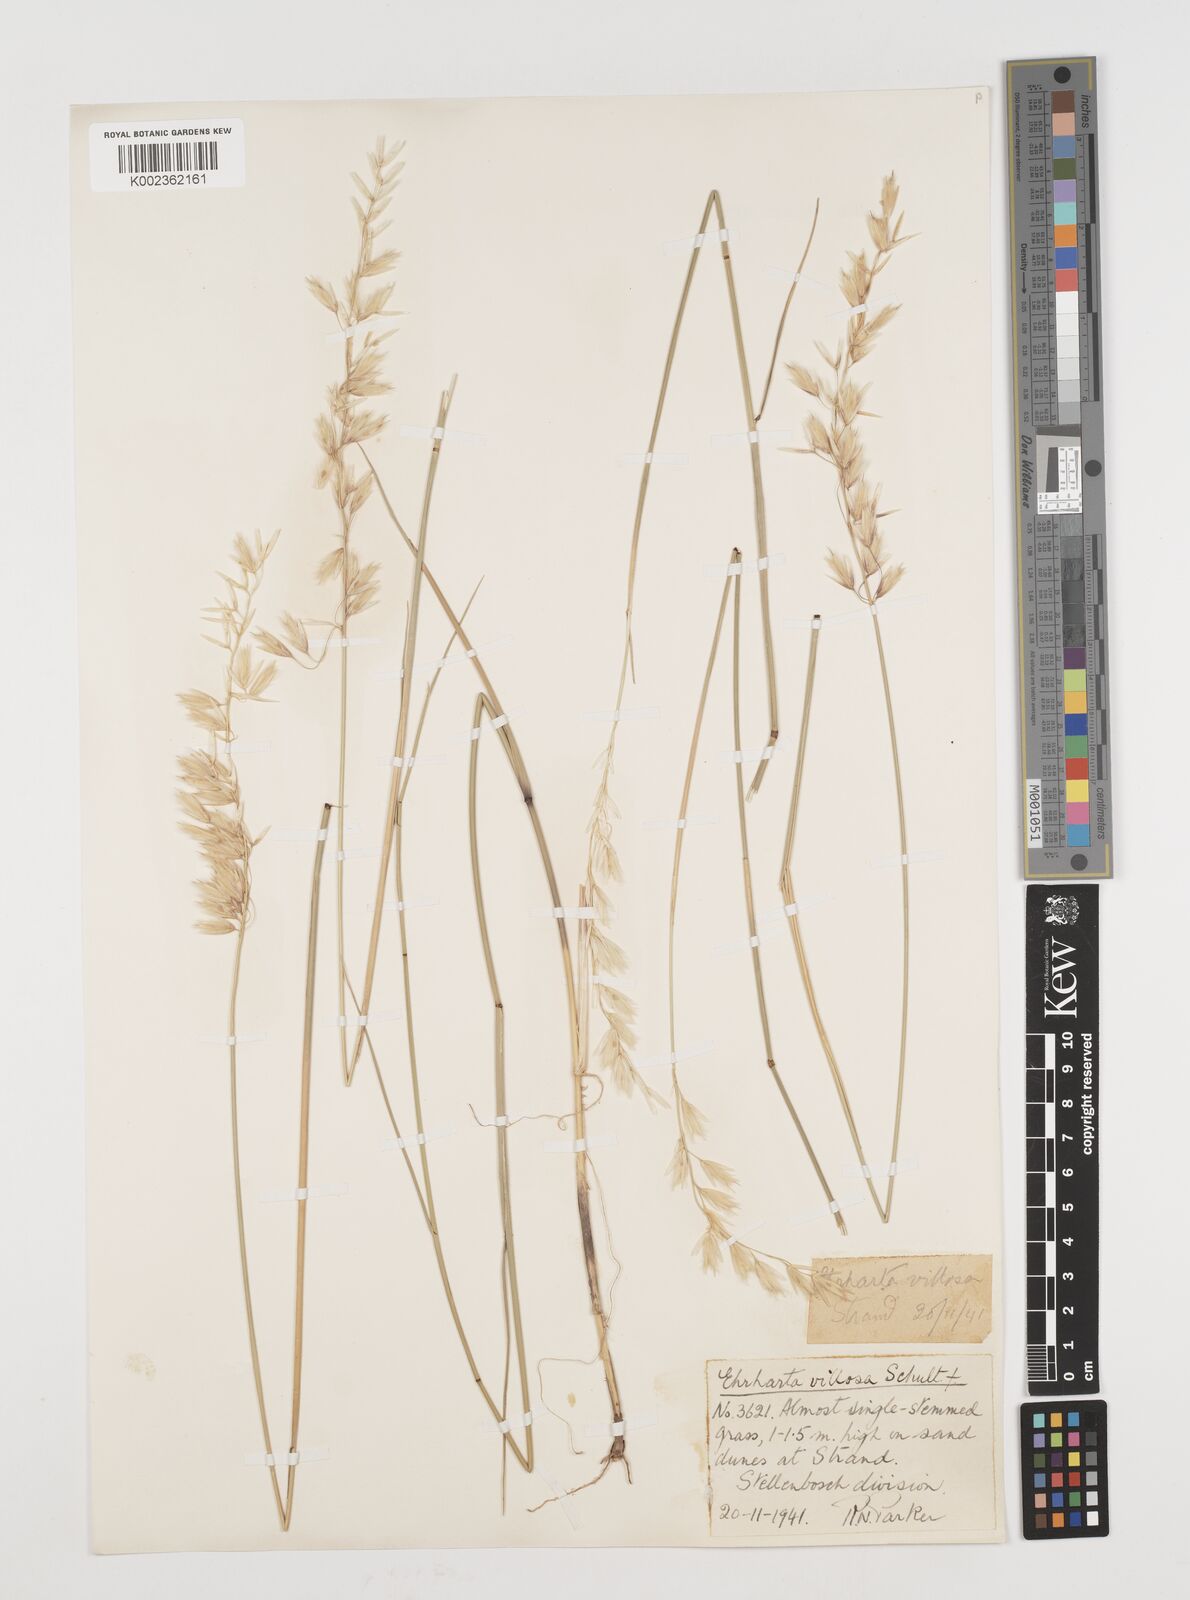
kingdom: Plantae
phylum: Tracheophyta
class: Liliopsida
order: Poales
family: Poaceae
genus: Ehrharta
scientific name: Ehrharta villosa
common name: Pyp grass
